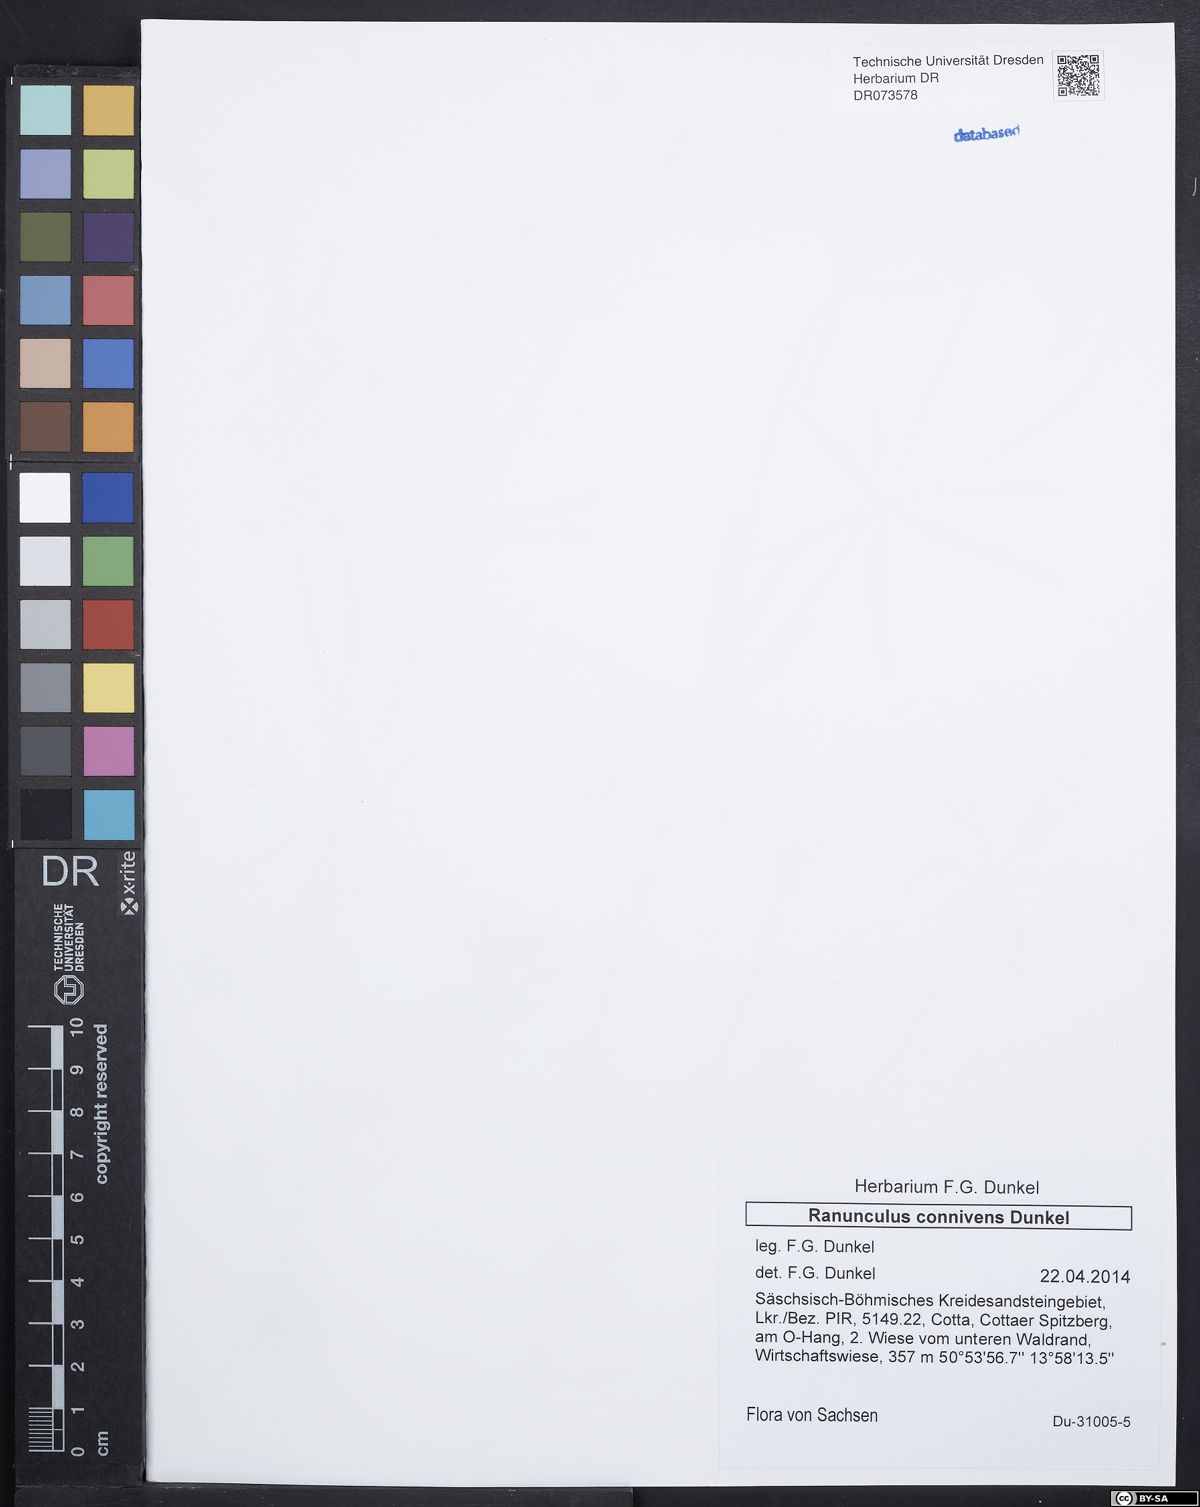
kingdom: Plantae
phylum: Tracheophyta
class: Magnoliopsida
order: Ranunculales
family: Ranunculaceae
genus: Ranunculus
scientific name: Ranunculus connivens
